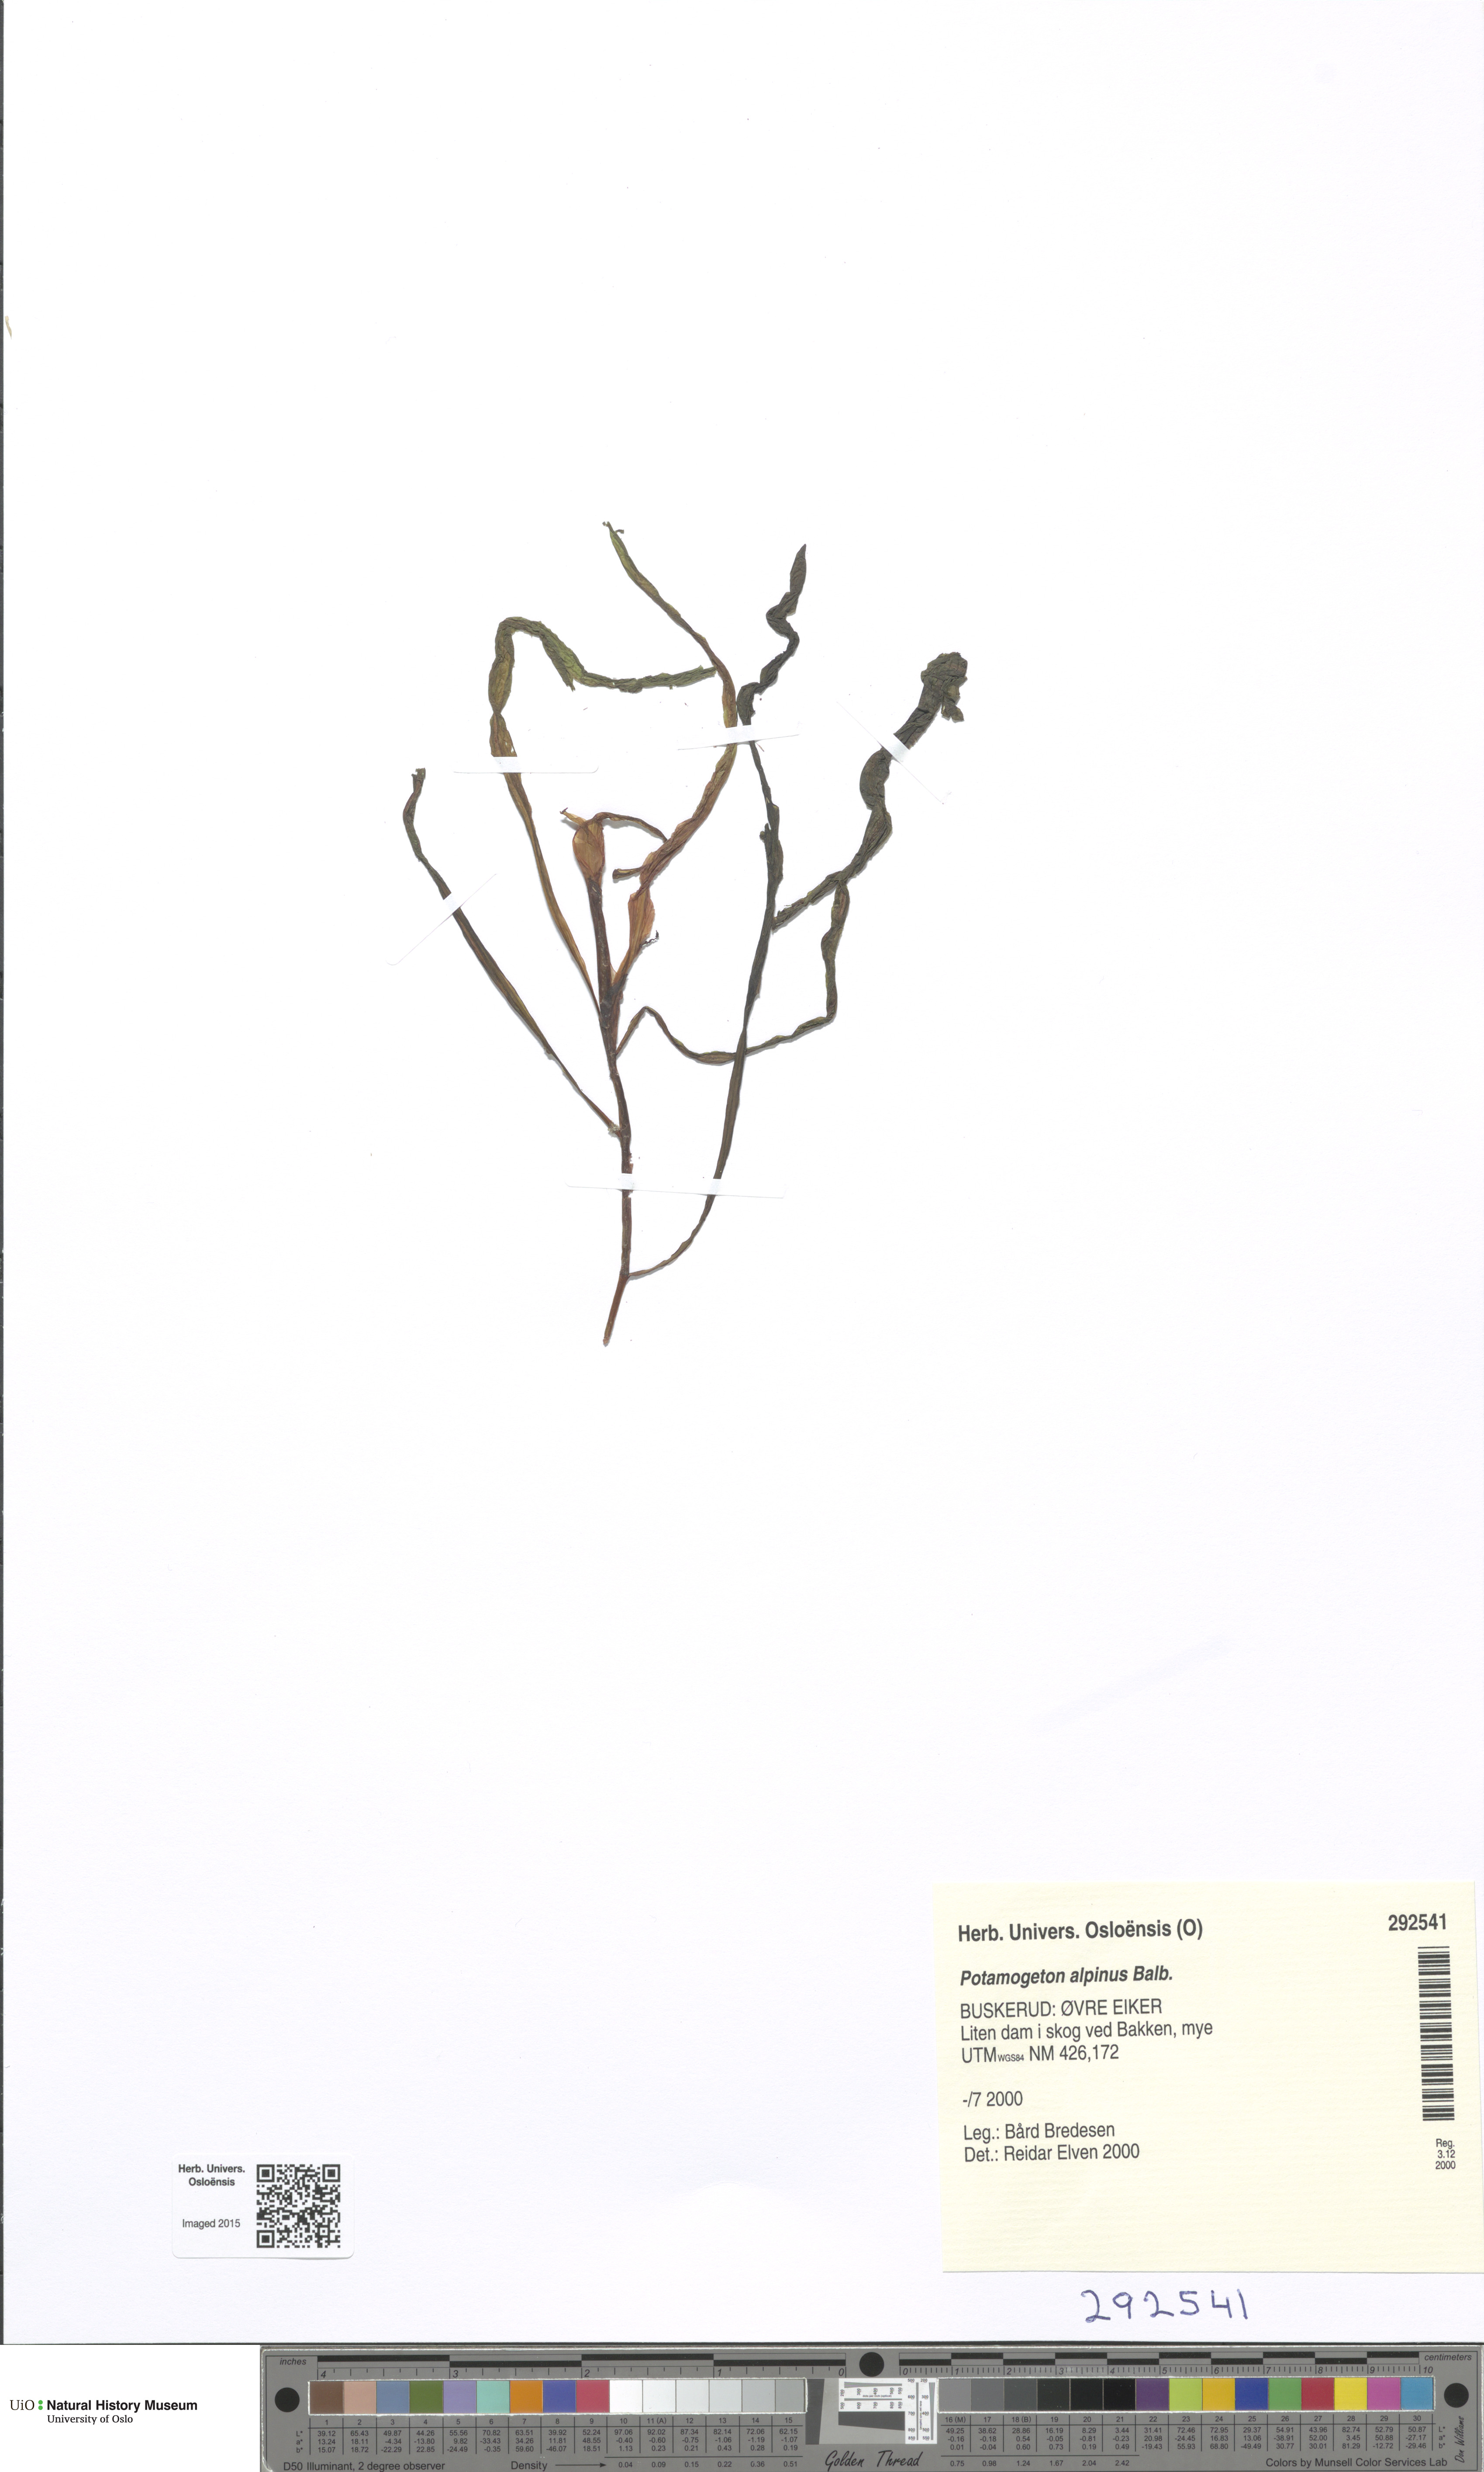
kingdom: Plantae
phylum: Tracheophyta
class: Liliopsida
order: Alismatales
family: Potamogetonaceae
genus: Potamogeton
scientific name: Potamogeton alpinus
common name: Red pondweed
